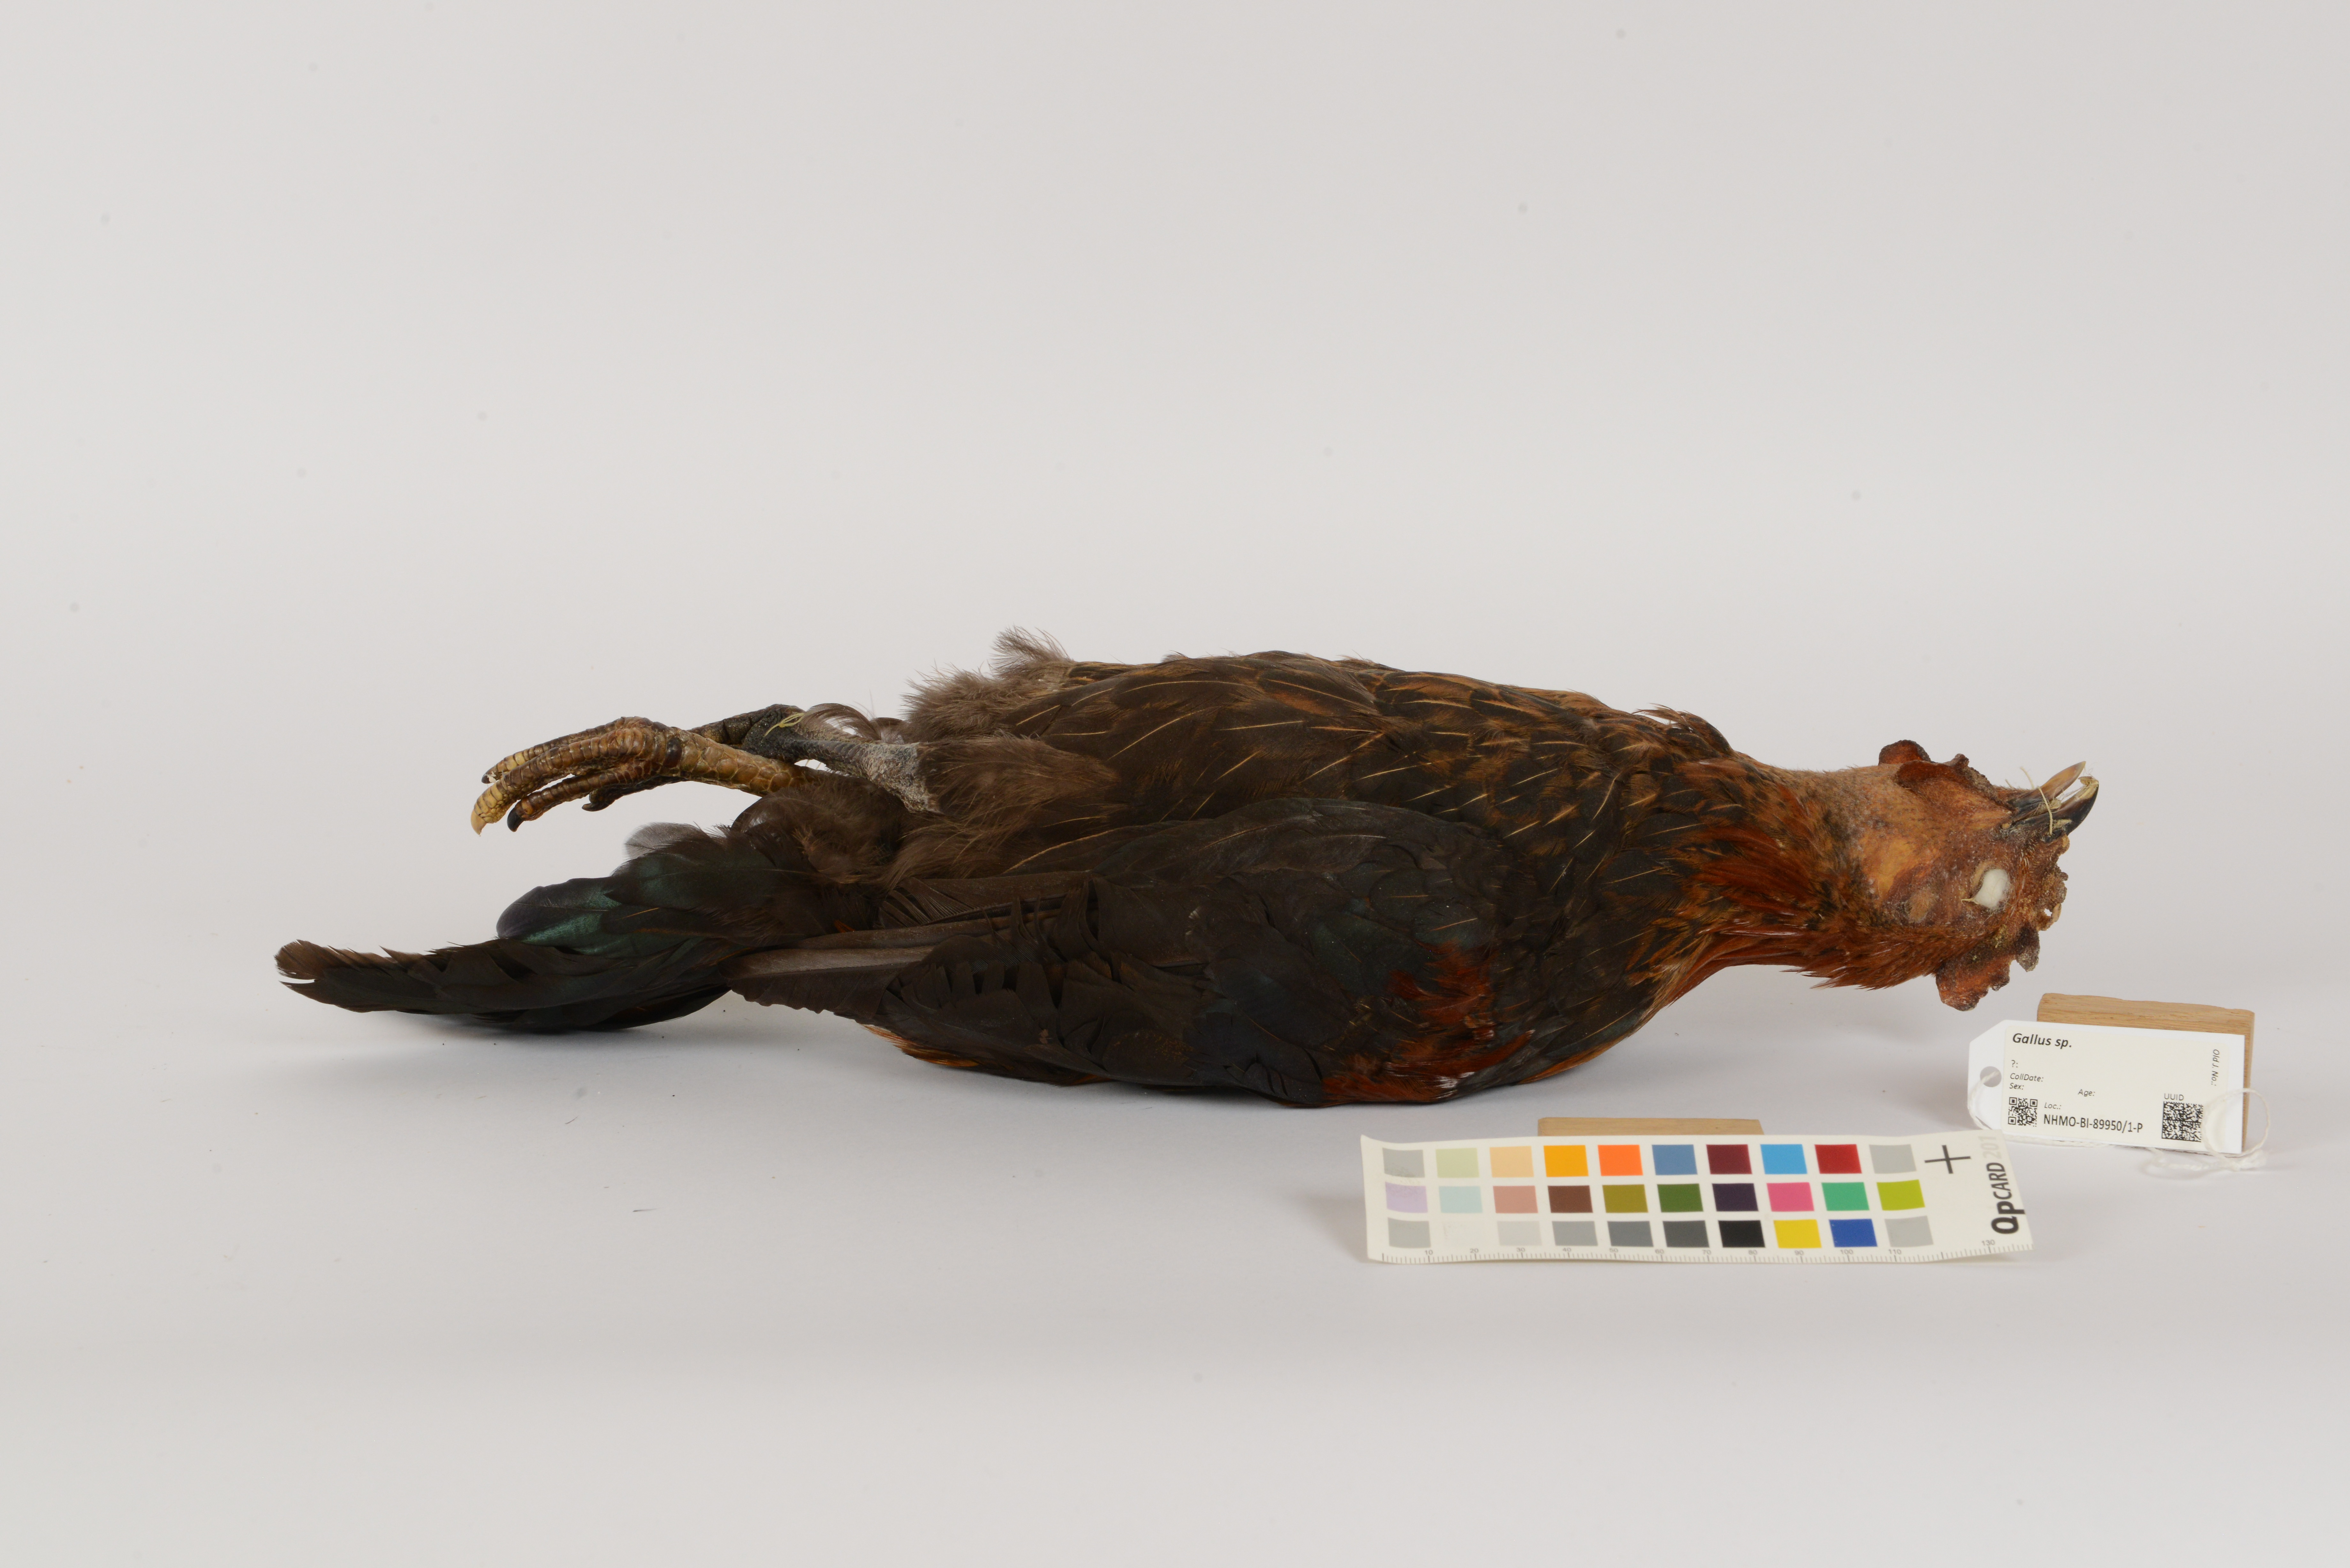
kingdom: Animalia
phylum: Chordata
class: Aves
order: Galliformes
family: Phasianidae
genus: Gallus
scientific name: Gallus
